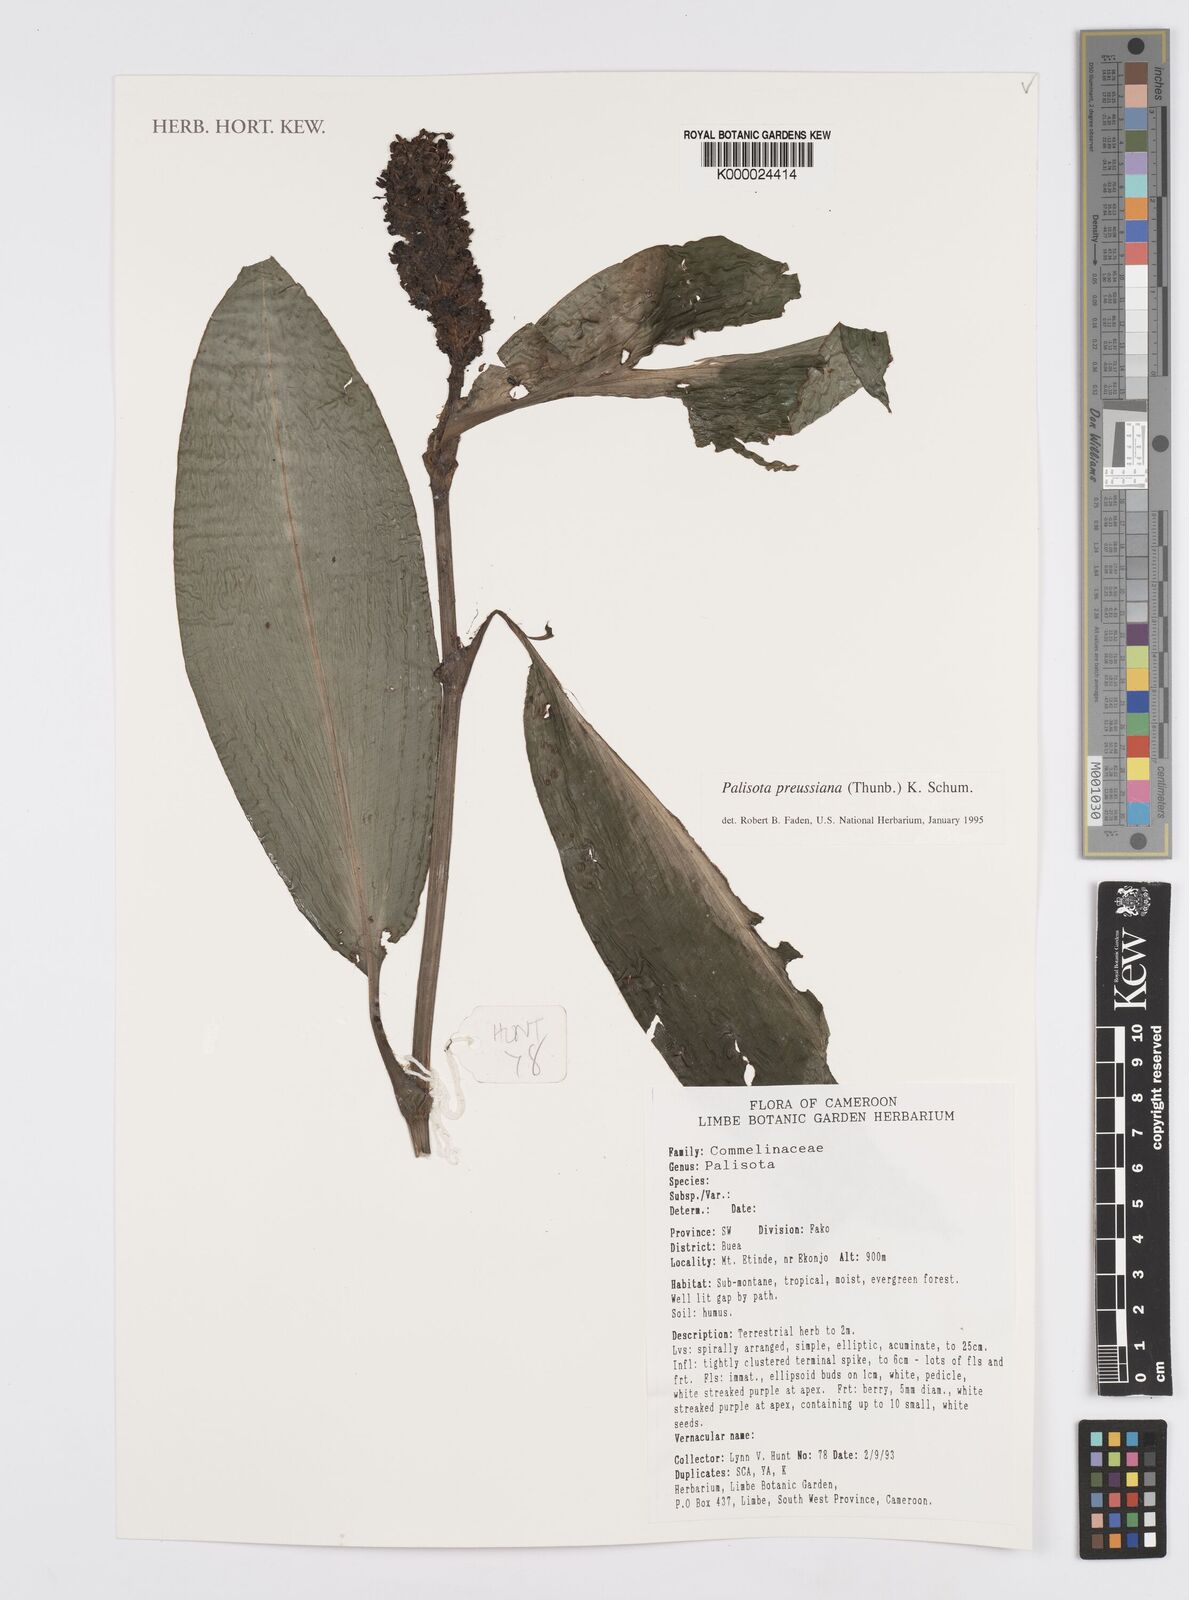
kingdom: Plantae
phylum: Tracheophyta
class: Liliopsida
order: Commelinales
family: Commelinaceae
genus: Palisota
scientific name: Palisota preussiana
